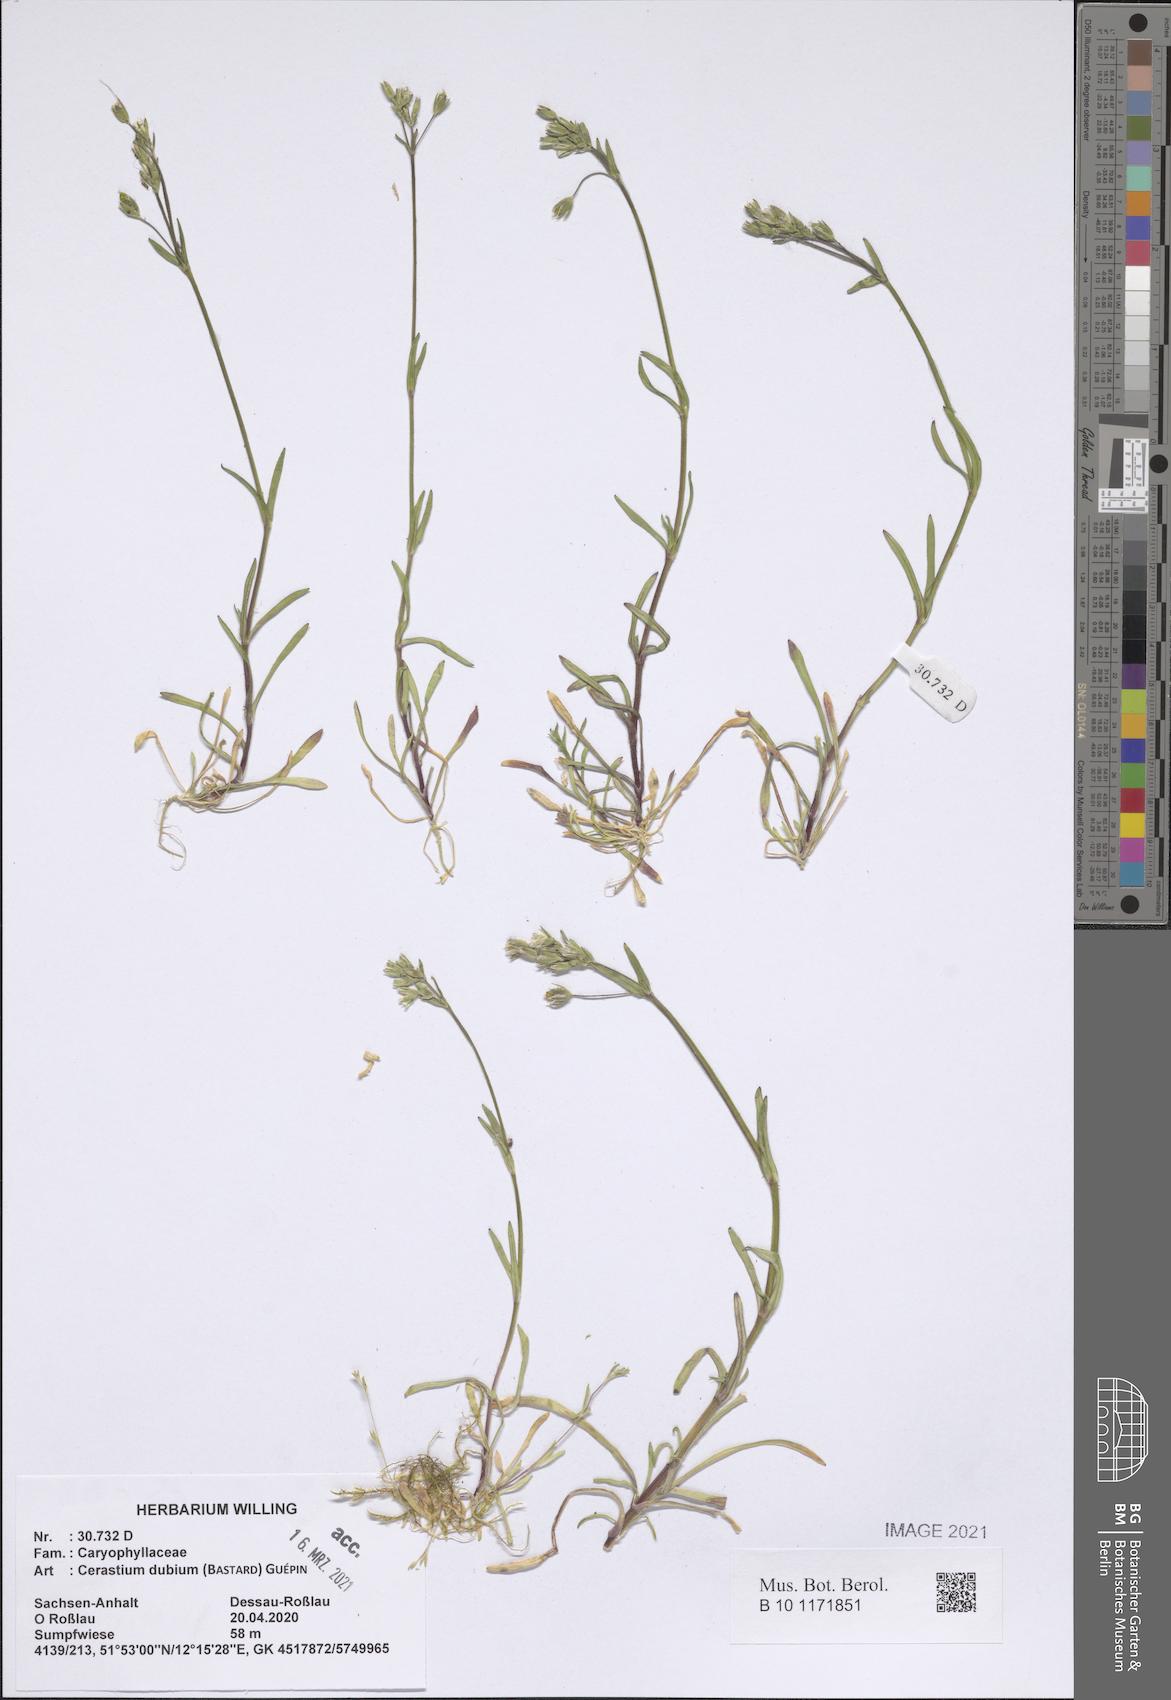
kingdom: Plantae
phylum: Tracheophyta
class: Magnoliopsida
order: Caryophyllales
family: Caryophyllaceae
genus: Dichodon
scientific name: Dichodon viscidum
